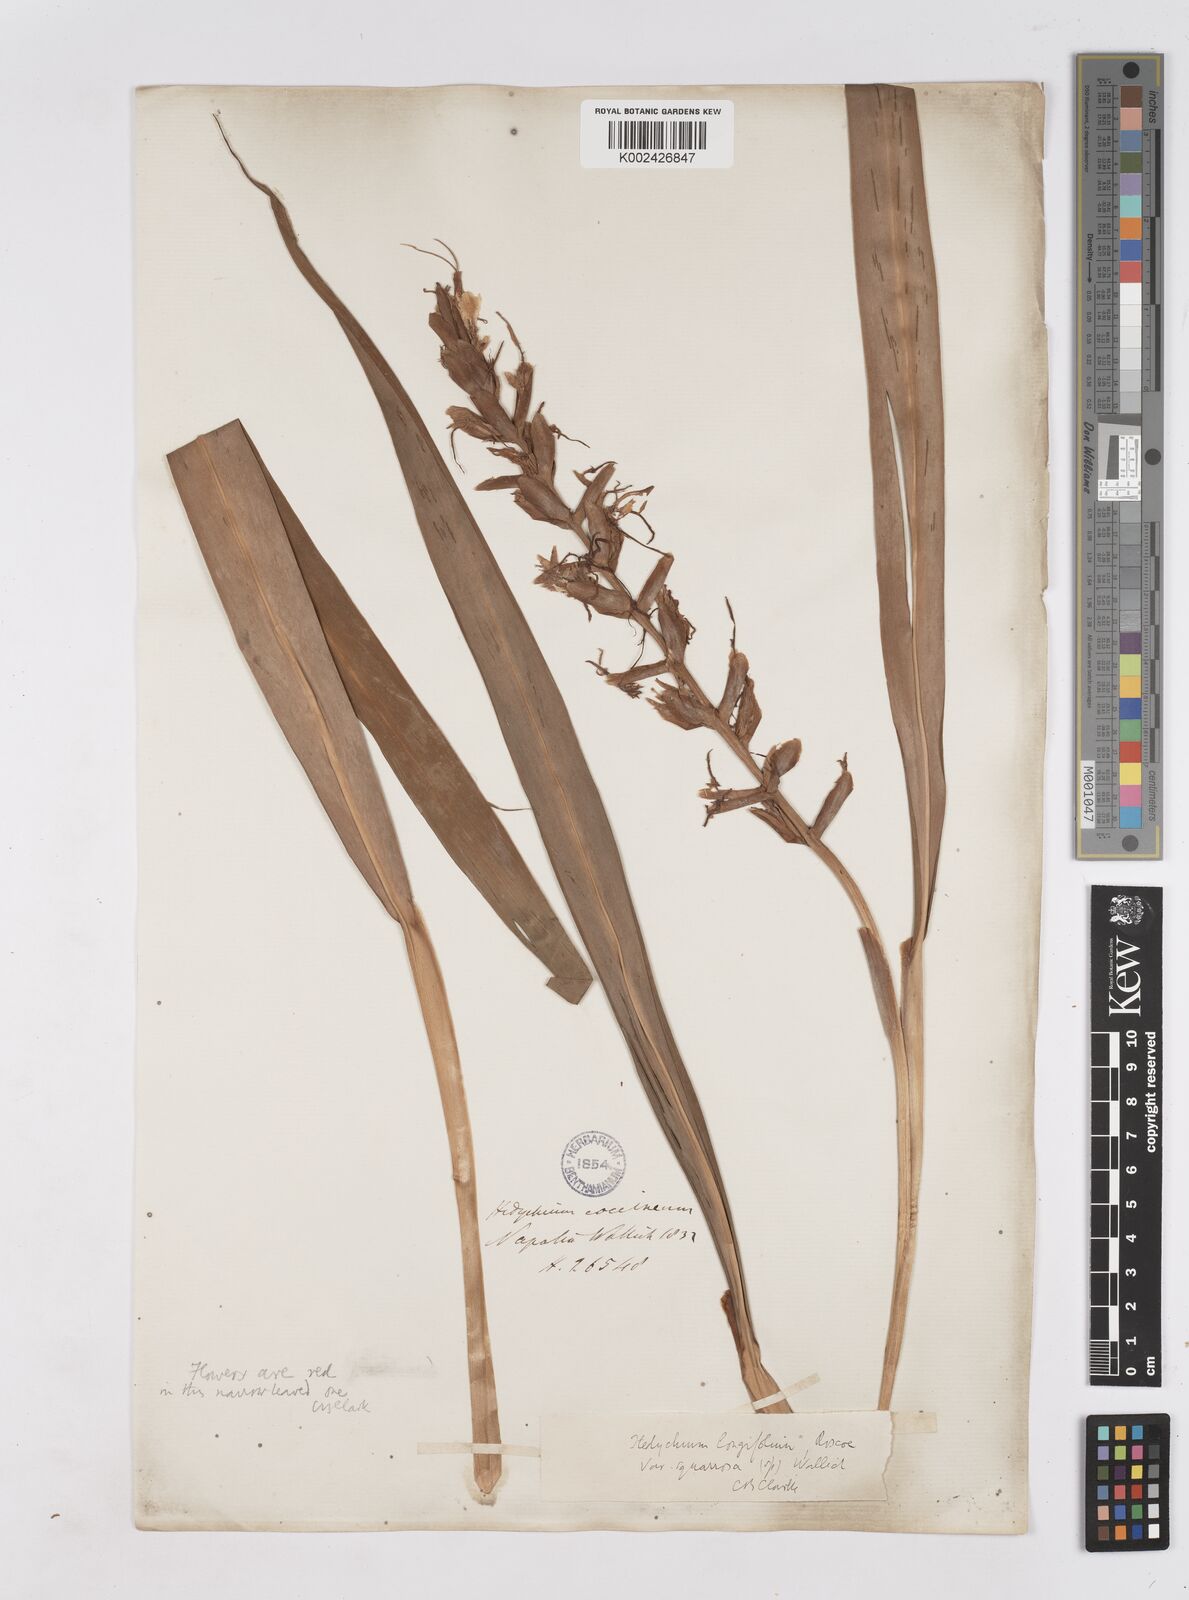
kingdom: Plantae
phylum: Tracheophyta
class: Liliopsida
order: Zingiberales
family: Zingiberaceae
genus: Hedychium
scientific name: Hedychium coccineum
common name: Red ginger-lily
